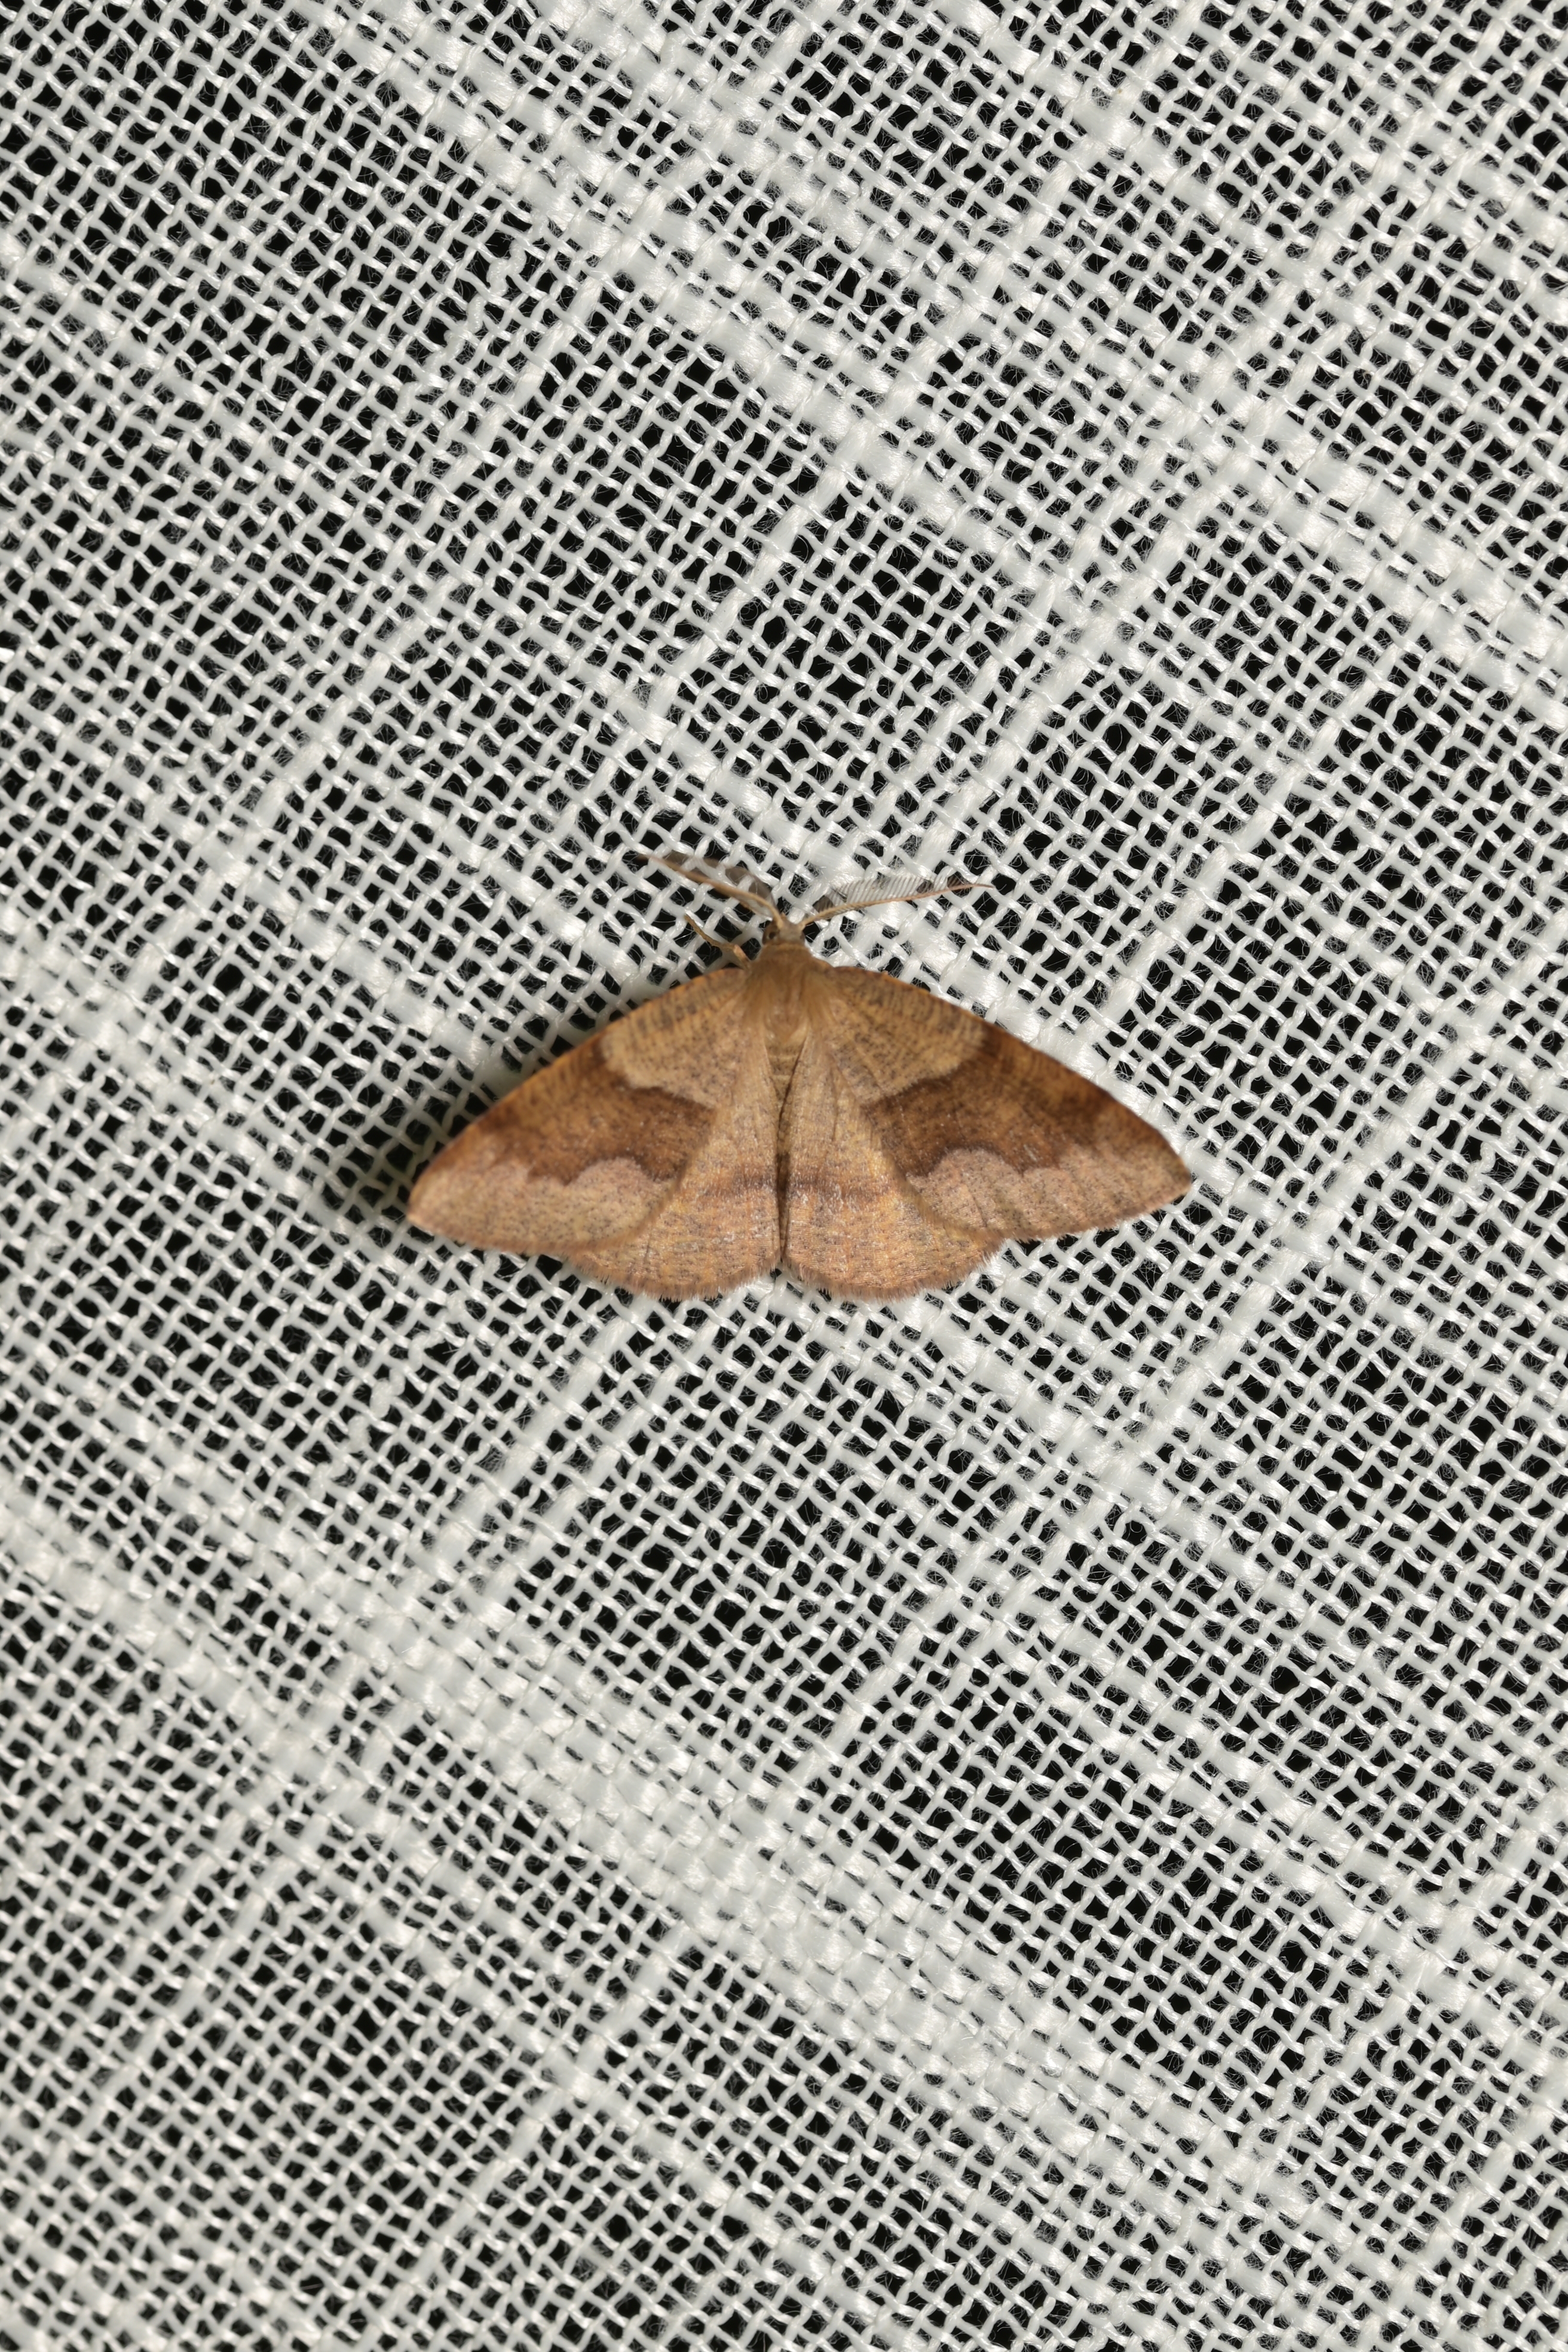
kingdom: Animalia
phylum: Arthropoda
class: Insecta
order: Lepidoptera
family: Geometridae
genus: Plagodis
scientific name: Plagodis pulveraria
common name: Barred umber
